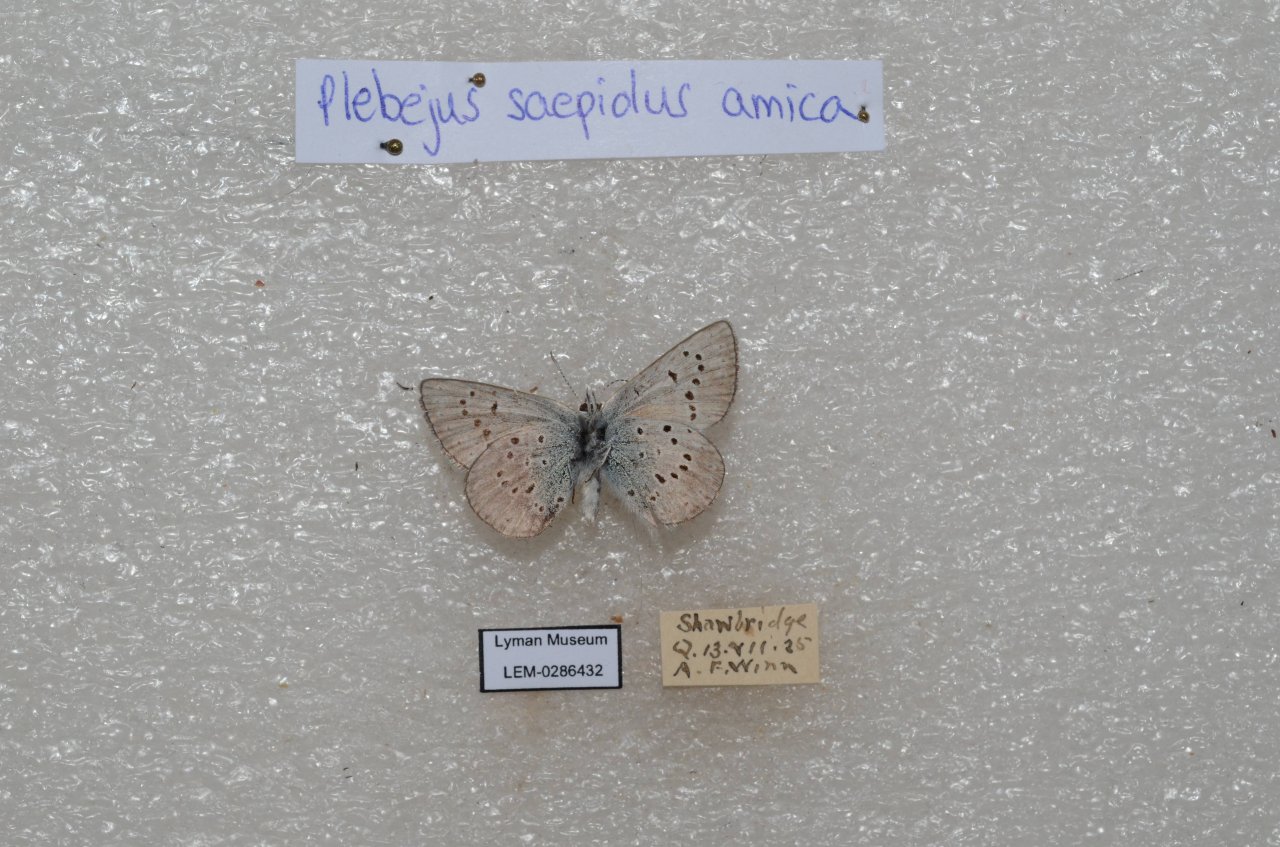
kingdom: Animalia
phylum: Arthropoda
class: Insecta
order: Lepidoptera
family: Lycaenidae
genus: Plebejus
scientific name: Plebejus saepiolus
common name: Greenish Blue
